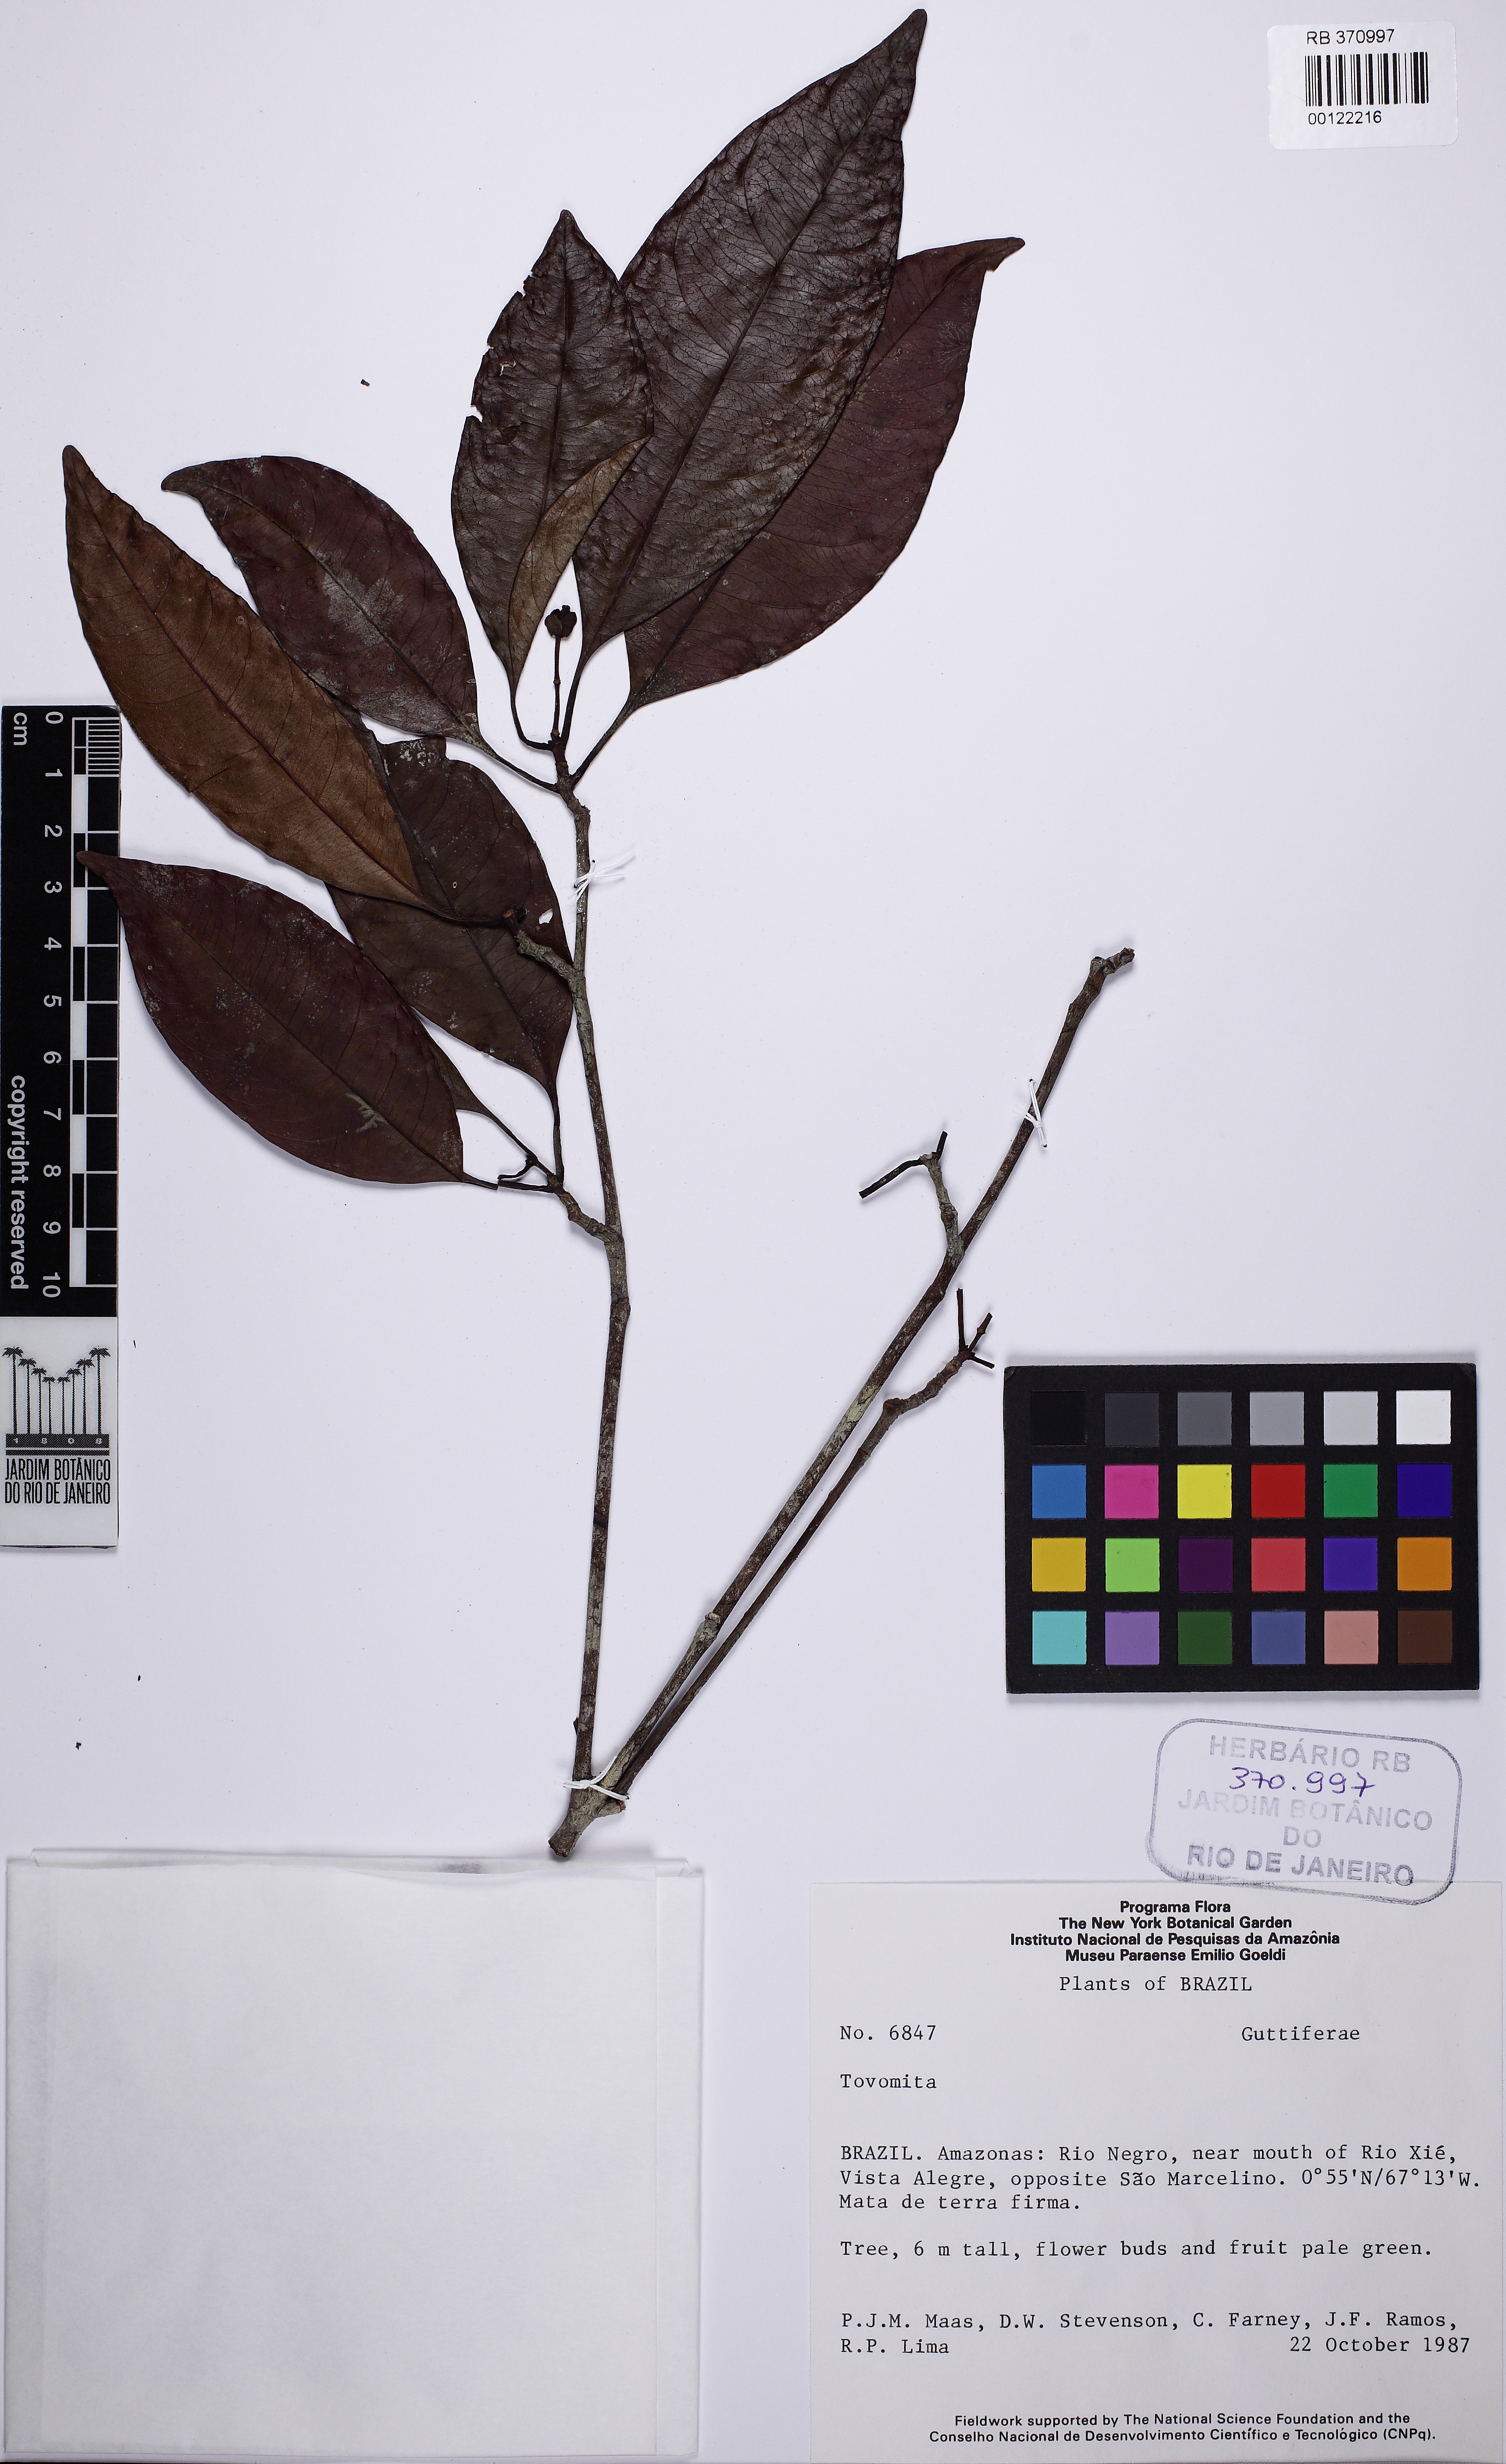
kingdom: Plantae
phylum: Tracheophyta
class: Magnoliopsida
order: Malpighiales
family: Clusiaceae
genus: Tovomita
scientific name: Tovomita
